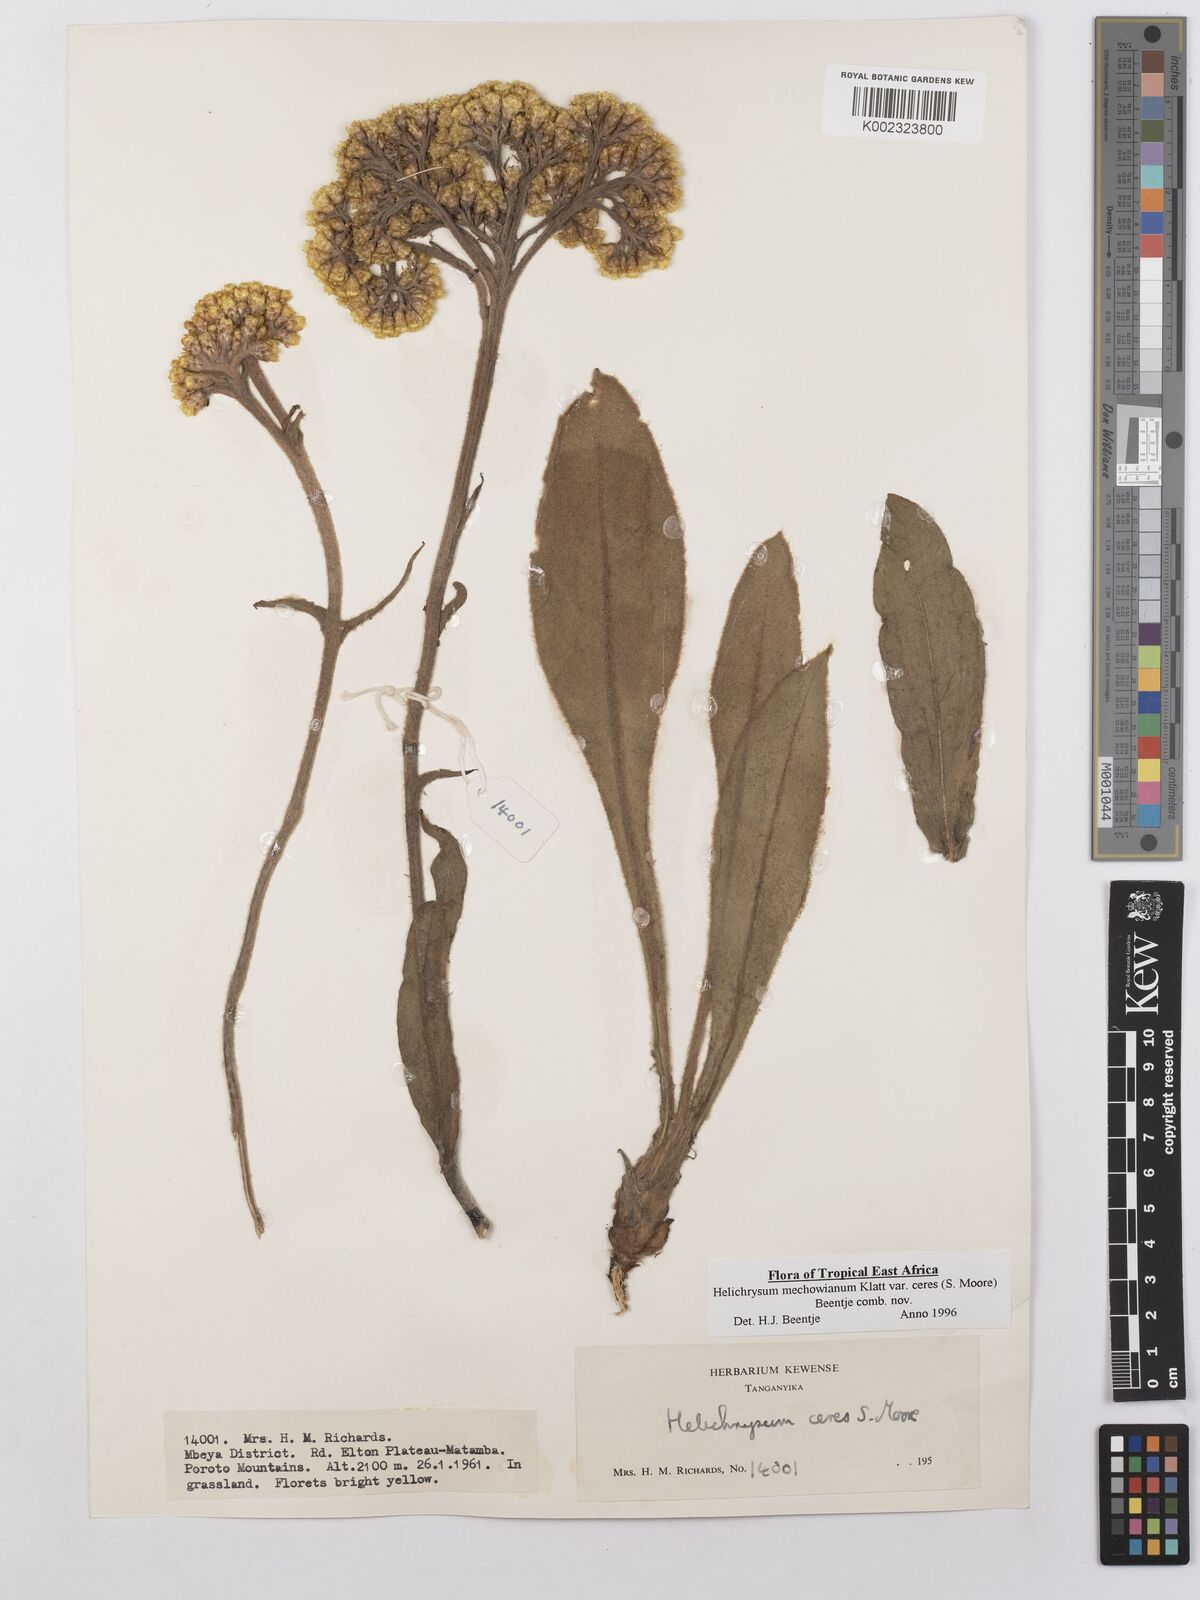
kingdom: Plantae
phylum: Tracheophyta
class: Magnoliopsida
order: Asterales
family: Asteraceae
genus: Helichrysum
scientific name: Helichrysum mechowianum
